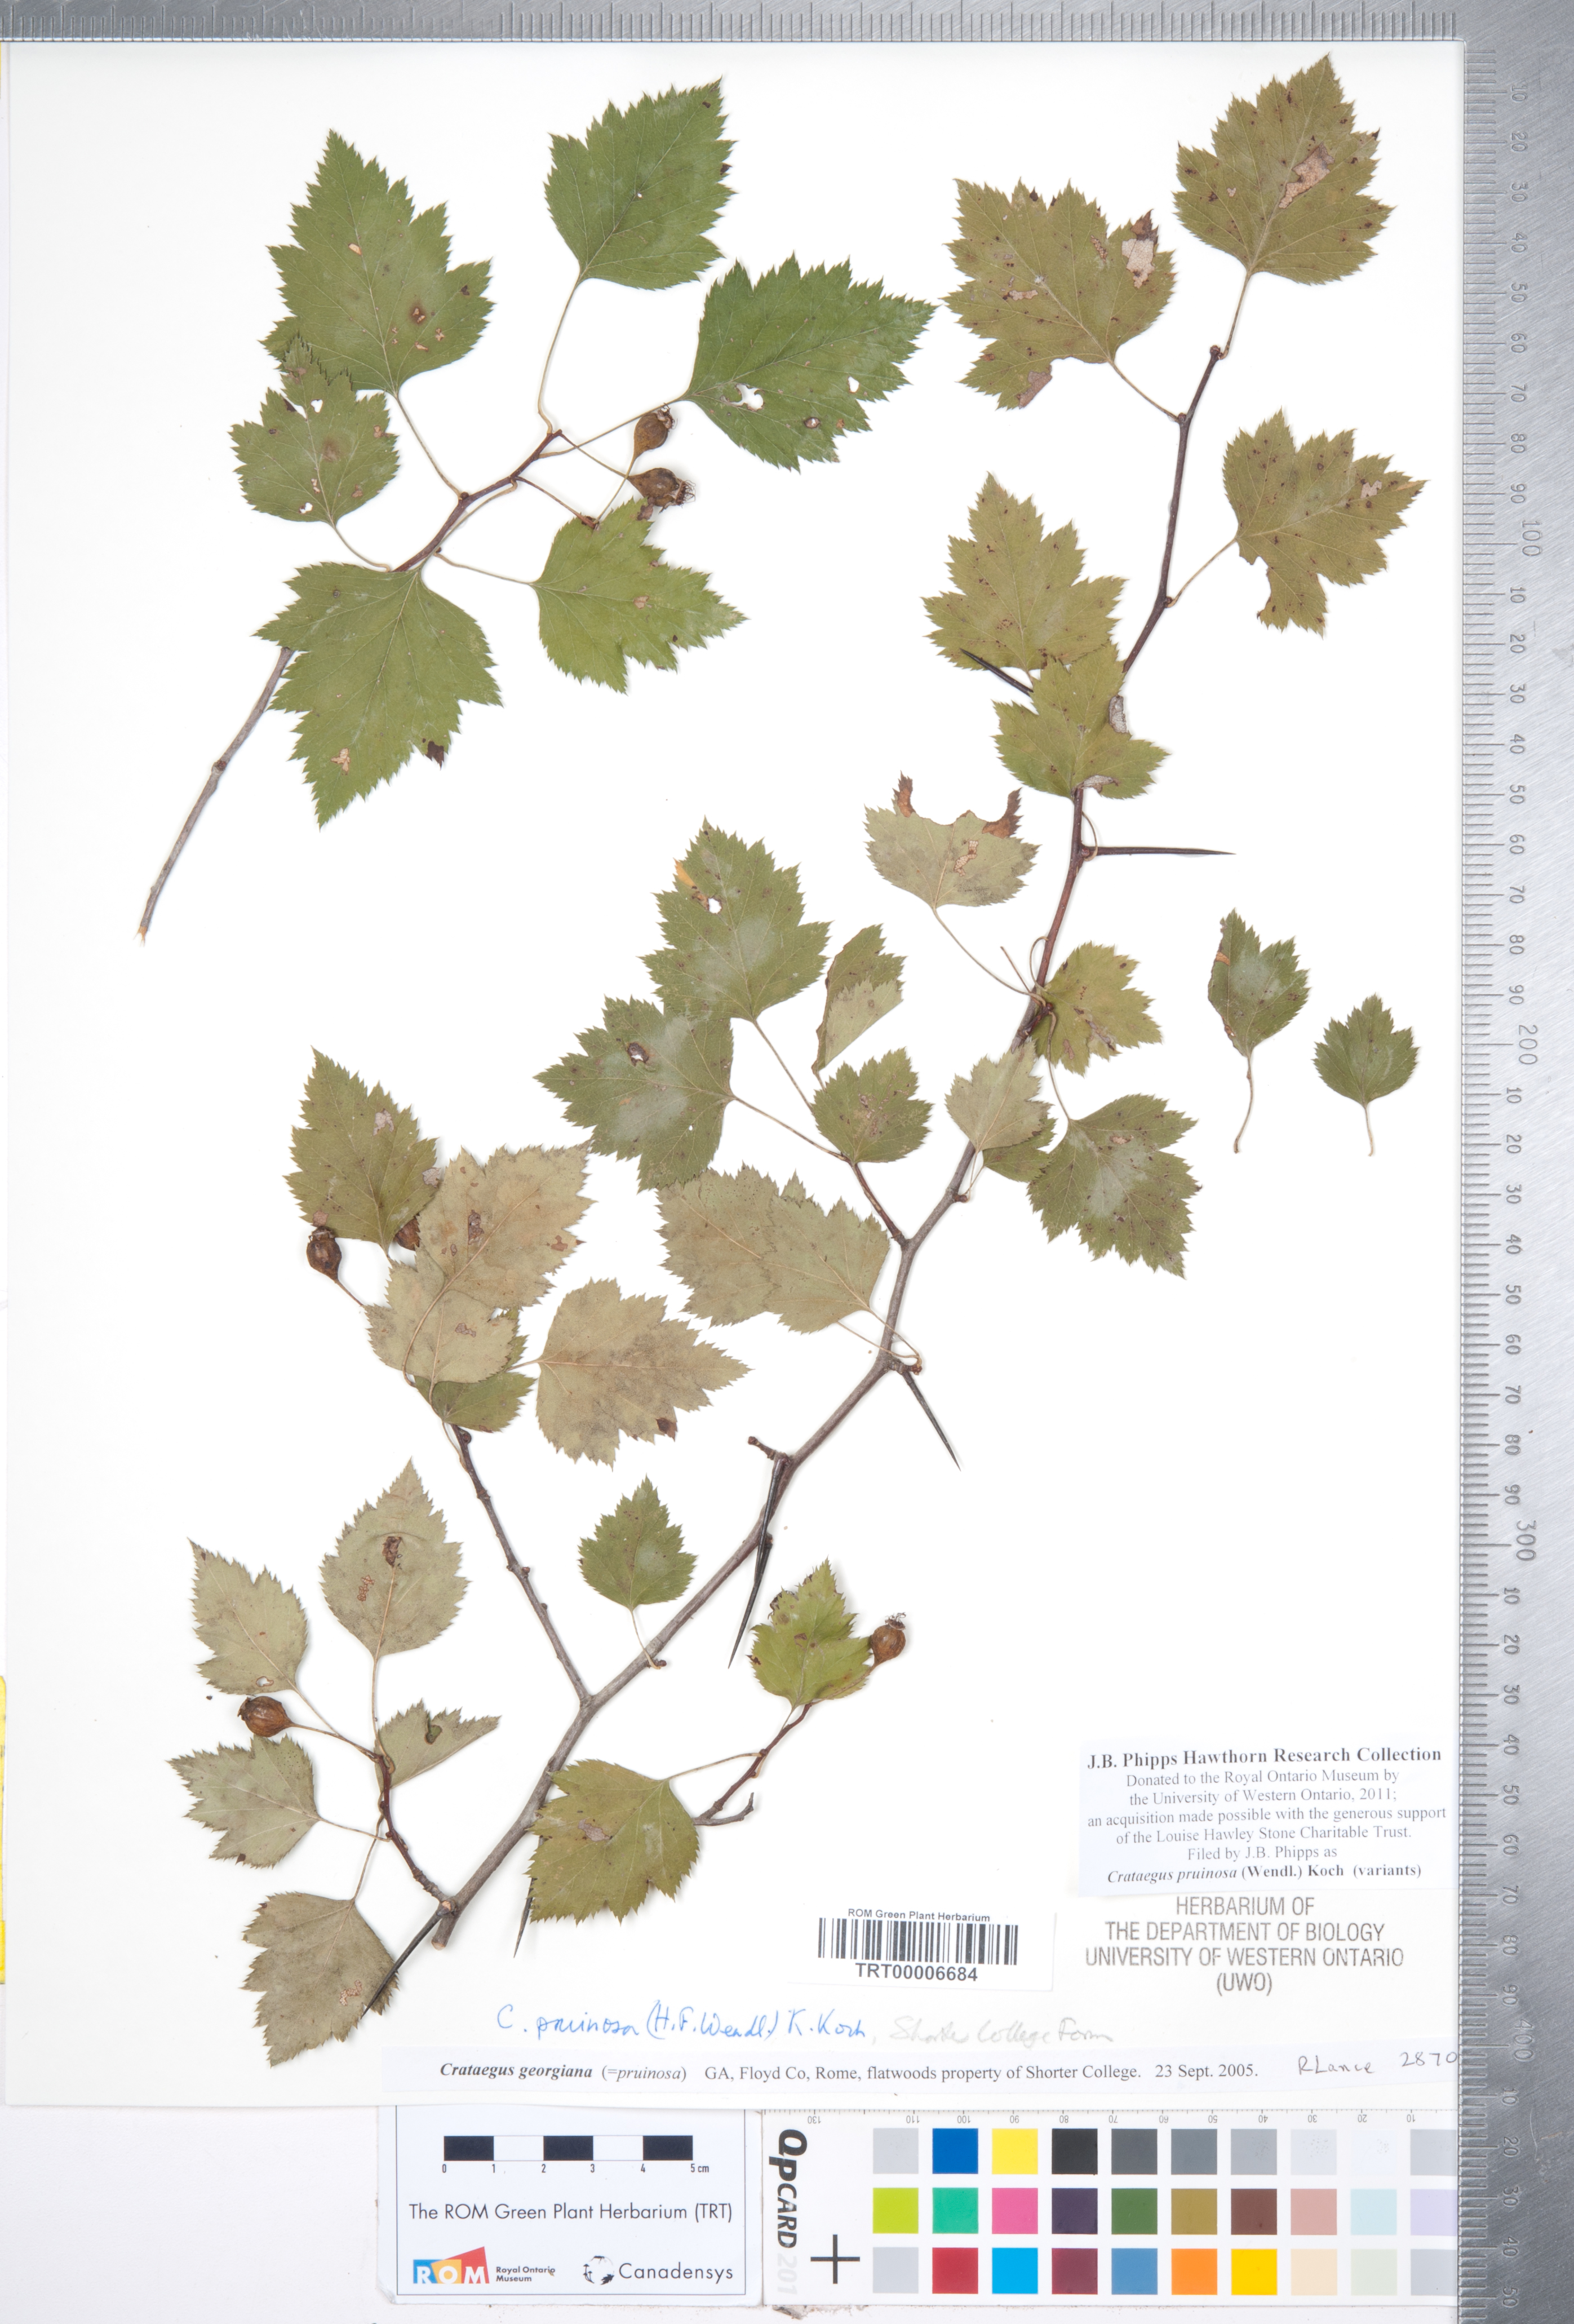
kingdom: Plantae
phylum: Tracheophyta
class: Magnoliopsida
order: Rosales
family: Rosaceae
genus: Crataegus
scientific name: Crataegus pruinosa
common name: Waxy-fruit hawthorn
